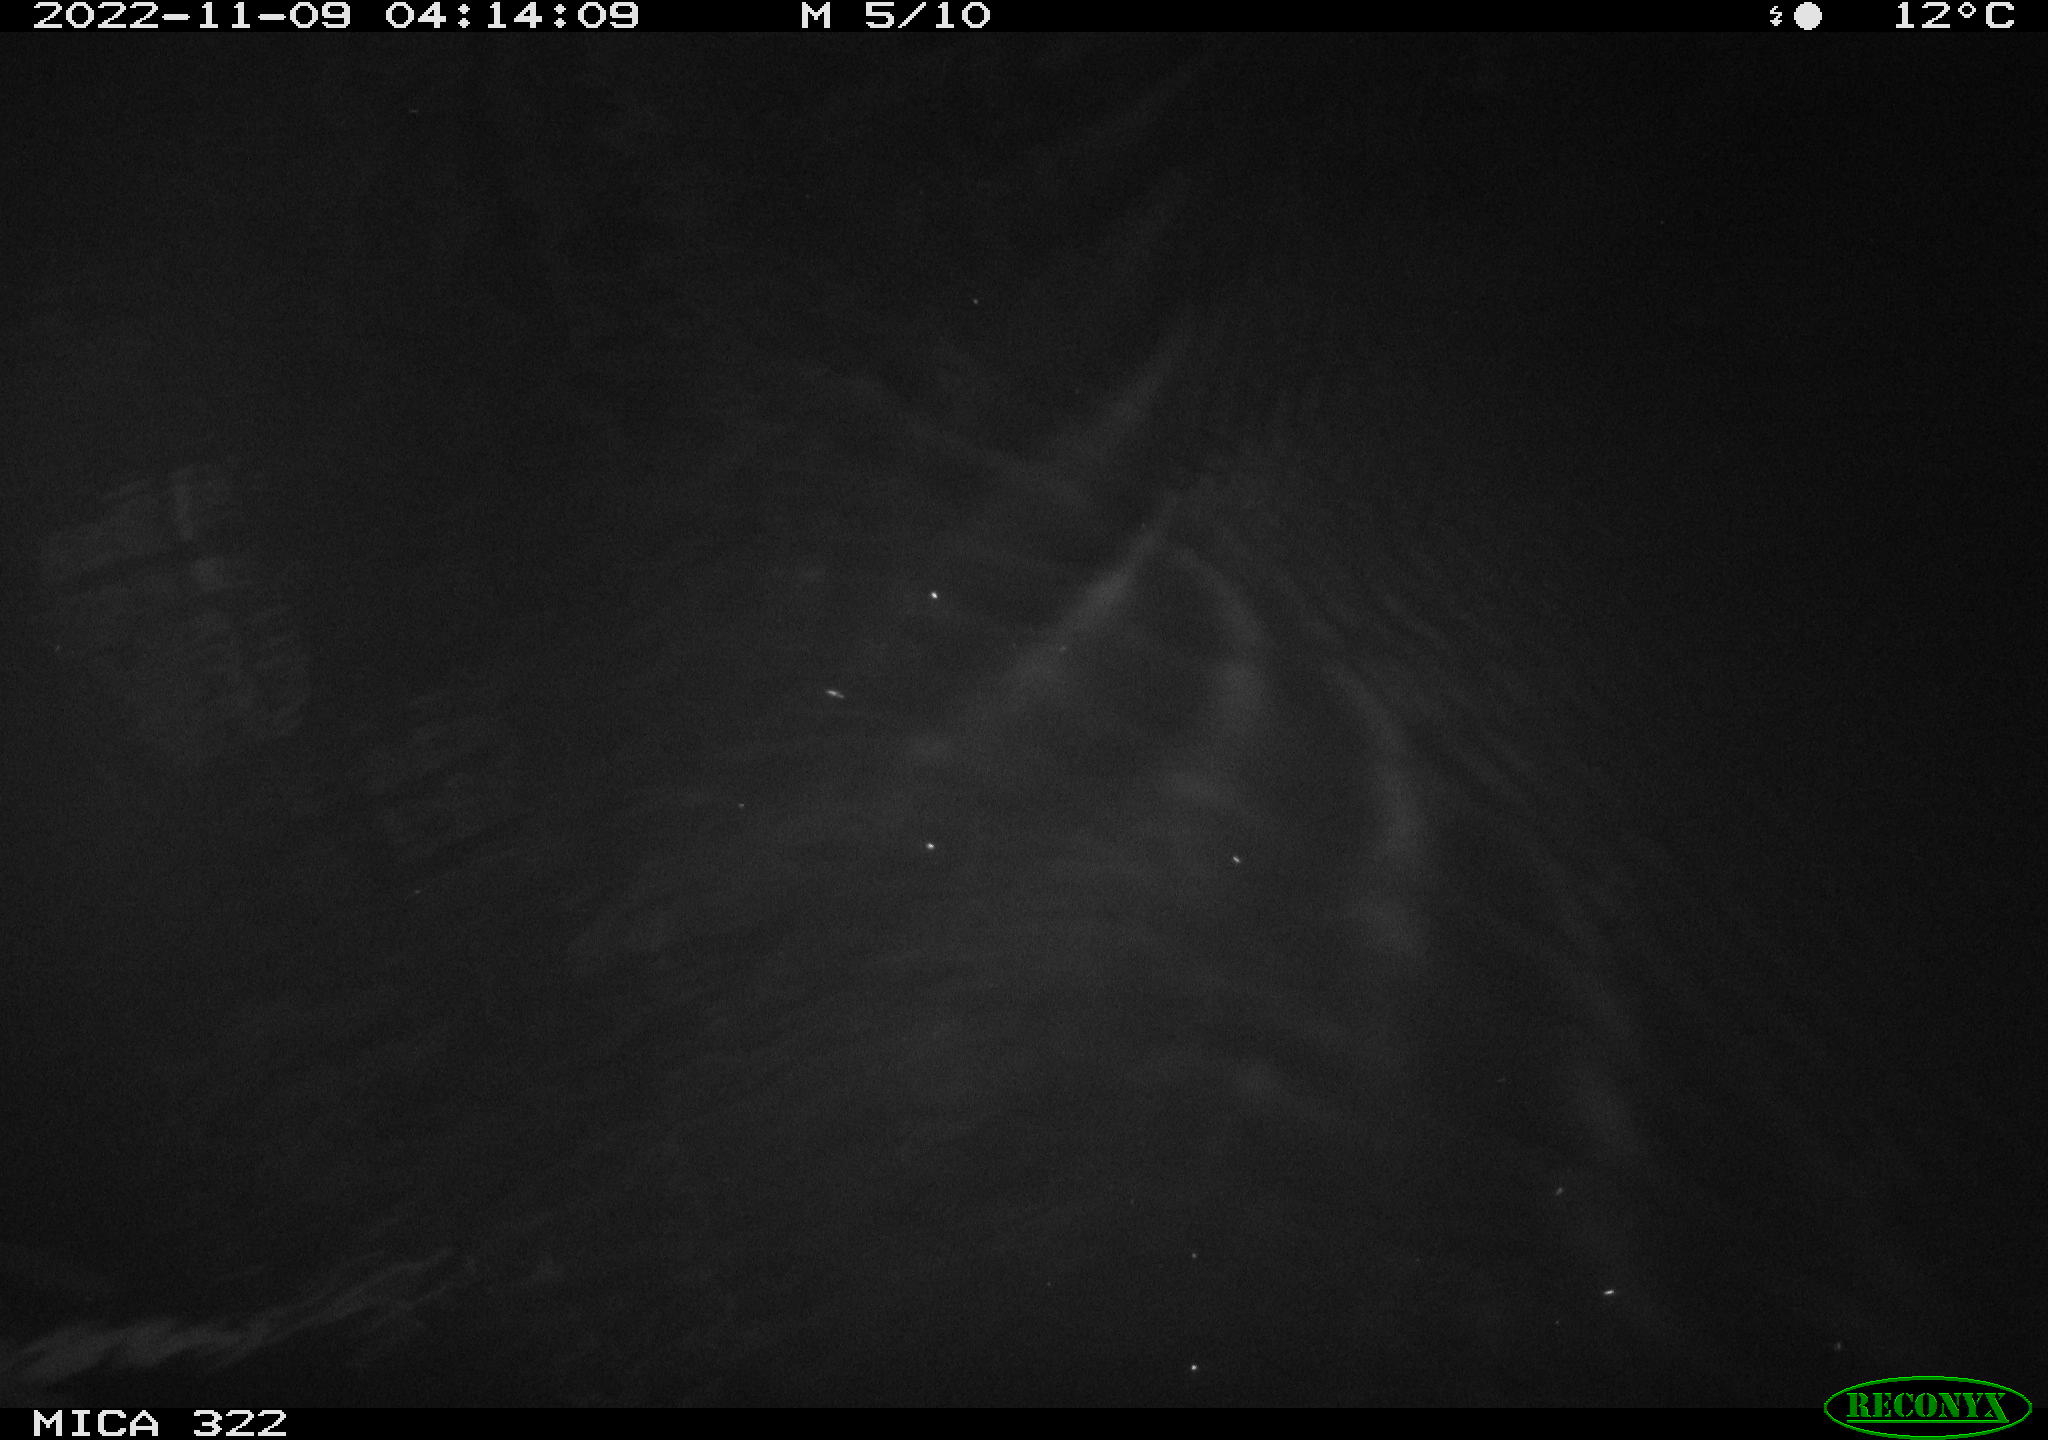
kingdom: Animalia
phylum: Chordata
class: Mammalia
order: Rodentia
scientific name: Rodentia
